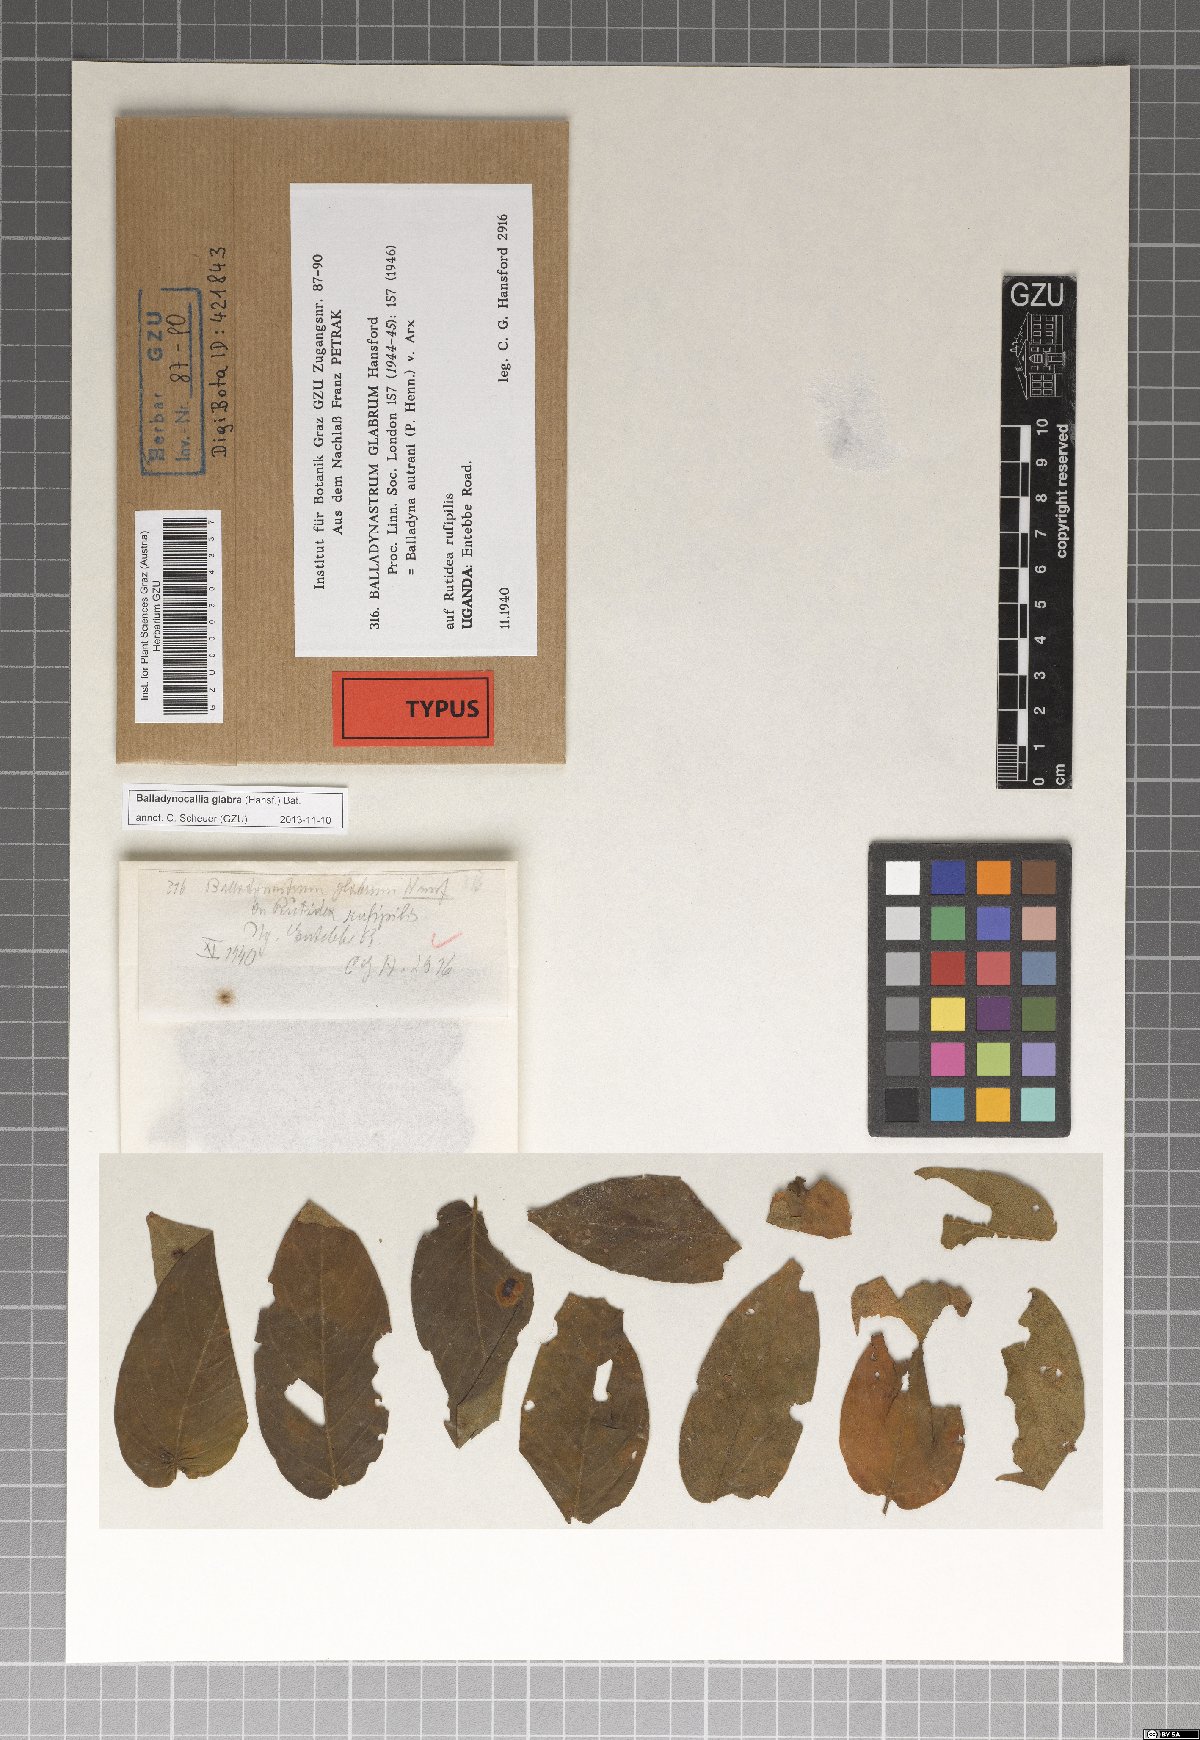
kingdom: Fungi
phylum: Ascomycota
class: Dothideomycetes
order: Dothideales
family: Parodiopsidaceae
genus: Balladynocallia
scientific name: Balladynocallia glabra
